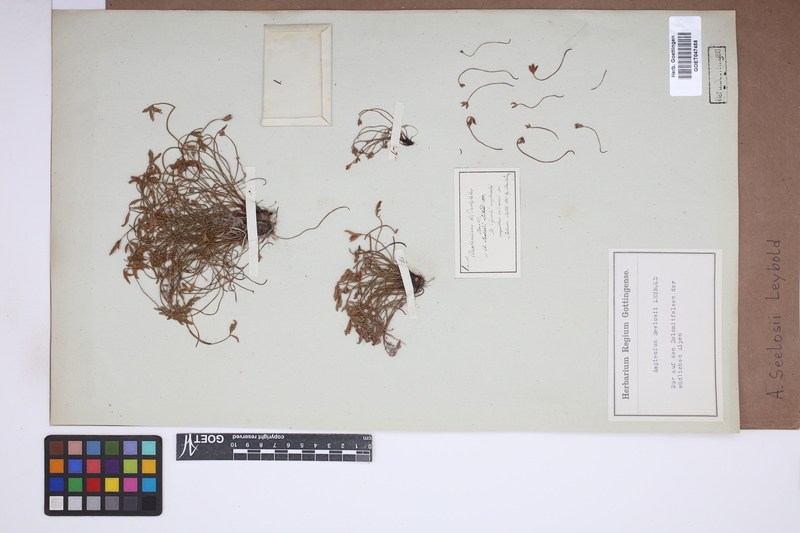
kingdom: Plantae
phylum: Tracheophyta
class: Polypodiopsida
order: Polypodiales
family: Aspleniaceae
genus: Asplenium
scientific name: Asplenium seelosii
